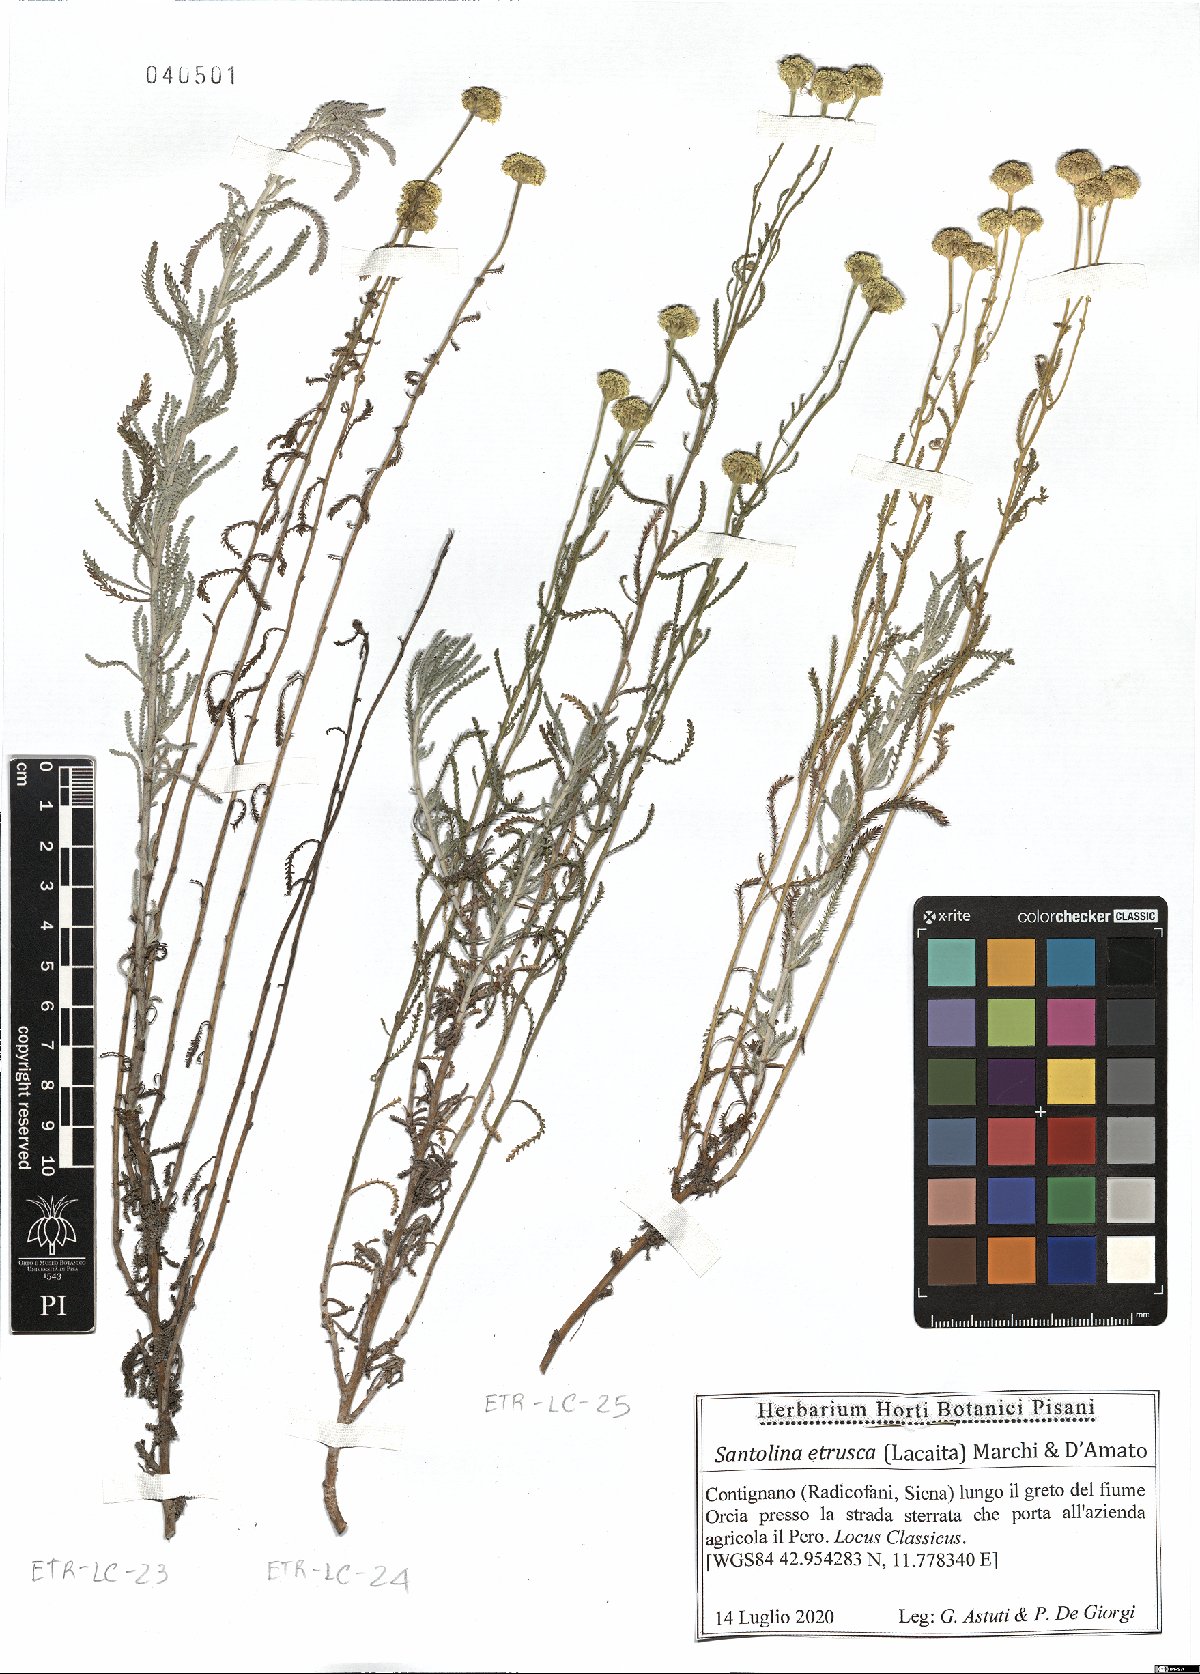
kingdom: Plantae
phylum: Tracheophyta
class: Magnoliopsida
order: Asterales
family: Asteraceae
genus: Santolina
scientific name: Santolina etrusca
